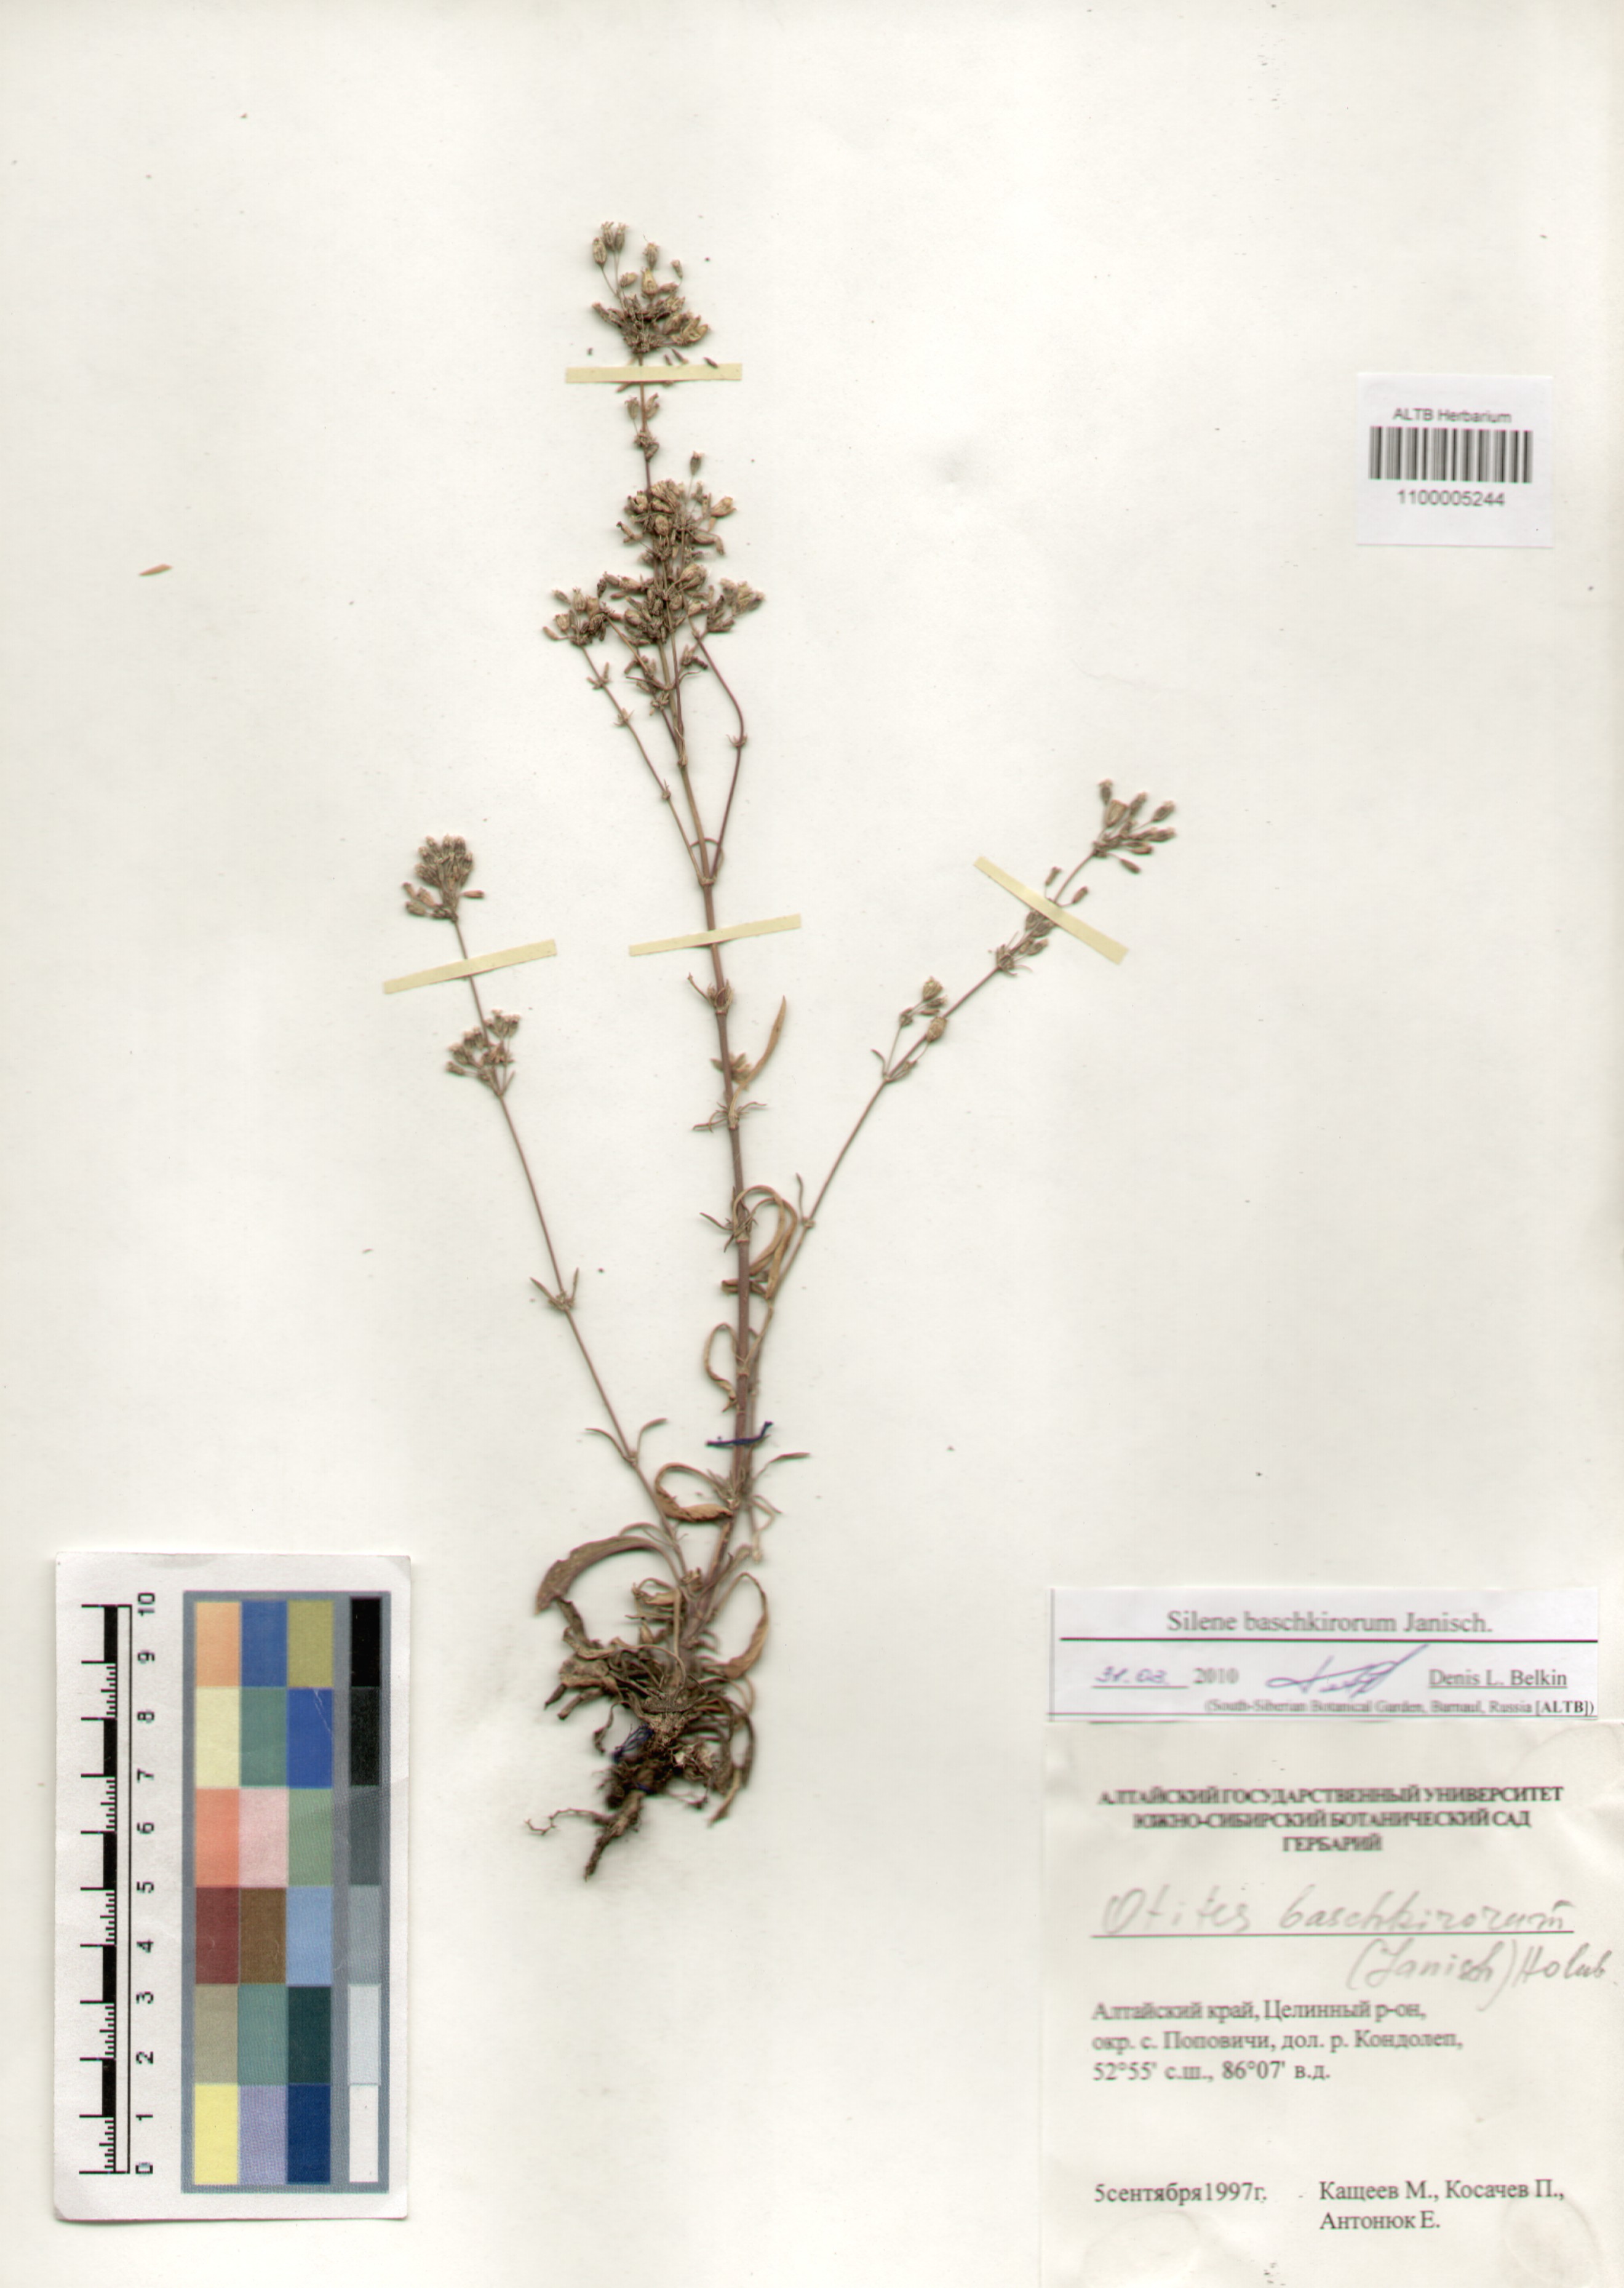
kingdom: Plantae
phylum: Tracheophyta
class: Magnoliopsida
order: Caryophyllales
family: Caryophyllaceae
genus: Silene
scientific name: Silene baschkirorum
